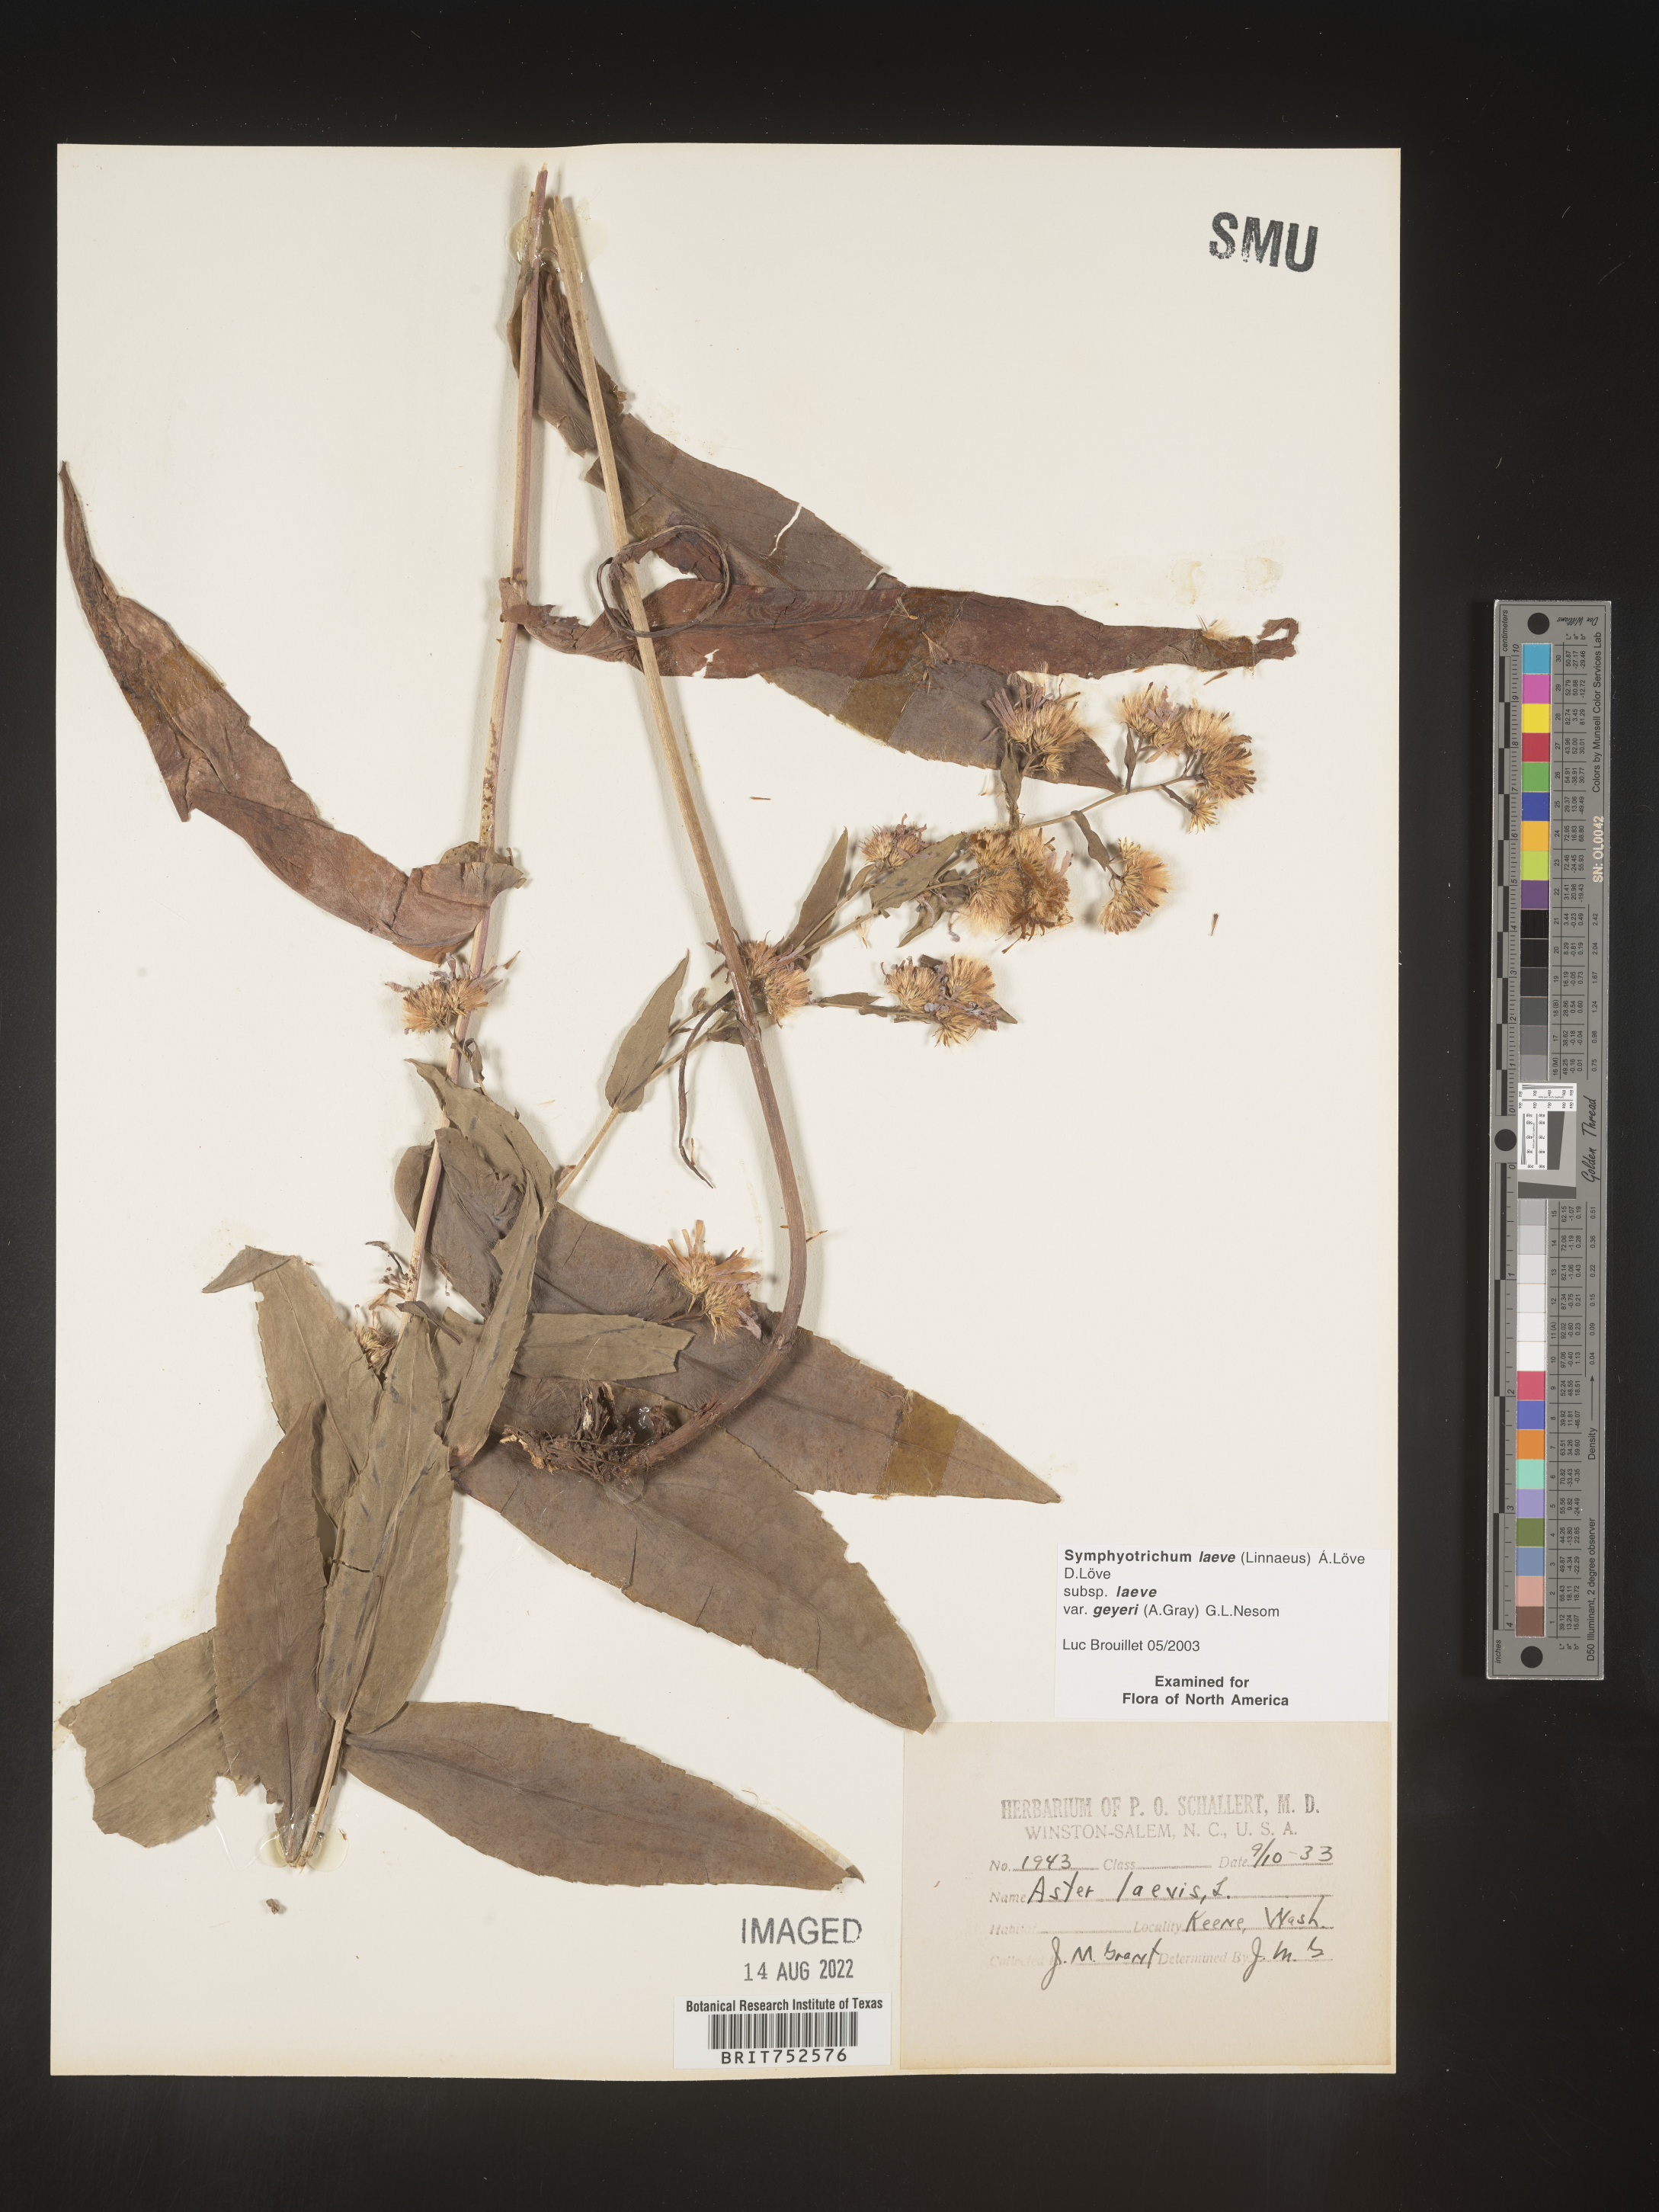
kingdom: Plantae
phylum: Tracheophyta
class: Magnoliopsida
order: Asterales
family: Asteraceae
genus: Symphyotrichum
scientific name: Symphyotrichum laeve
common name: Glaucous aster
